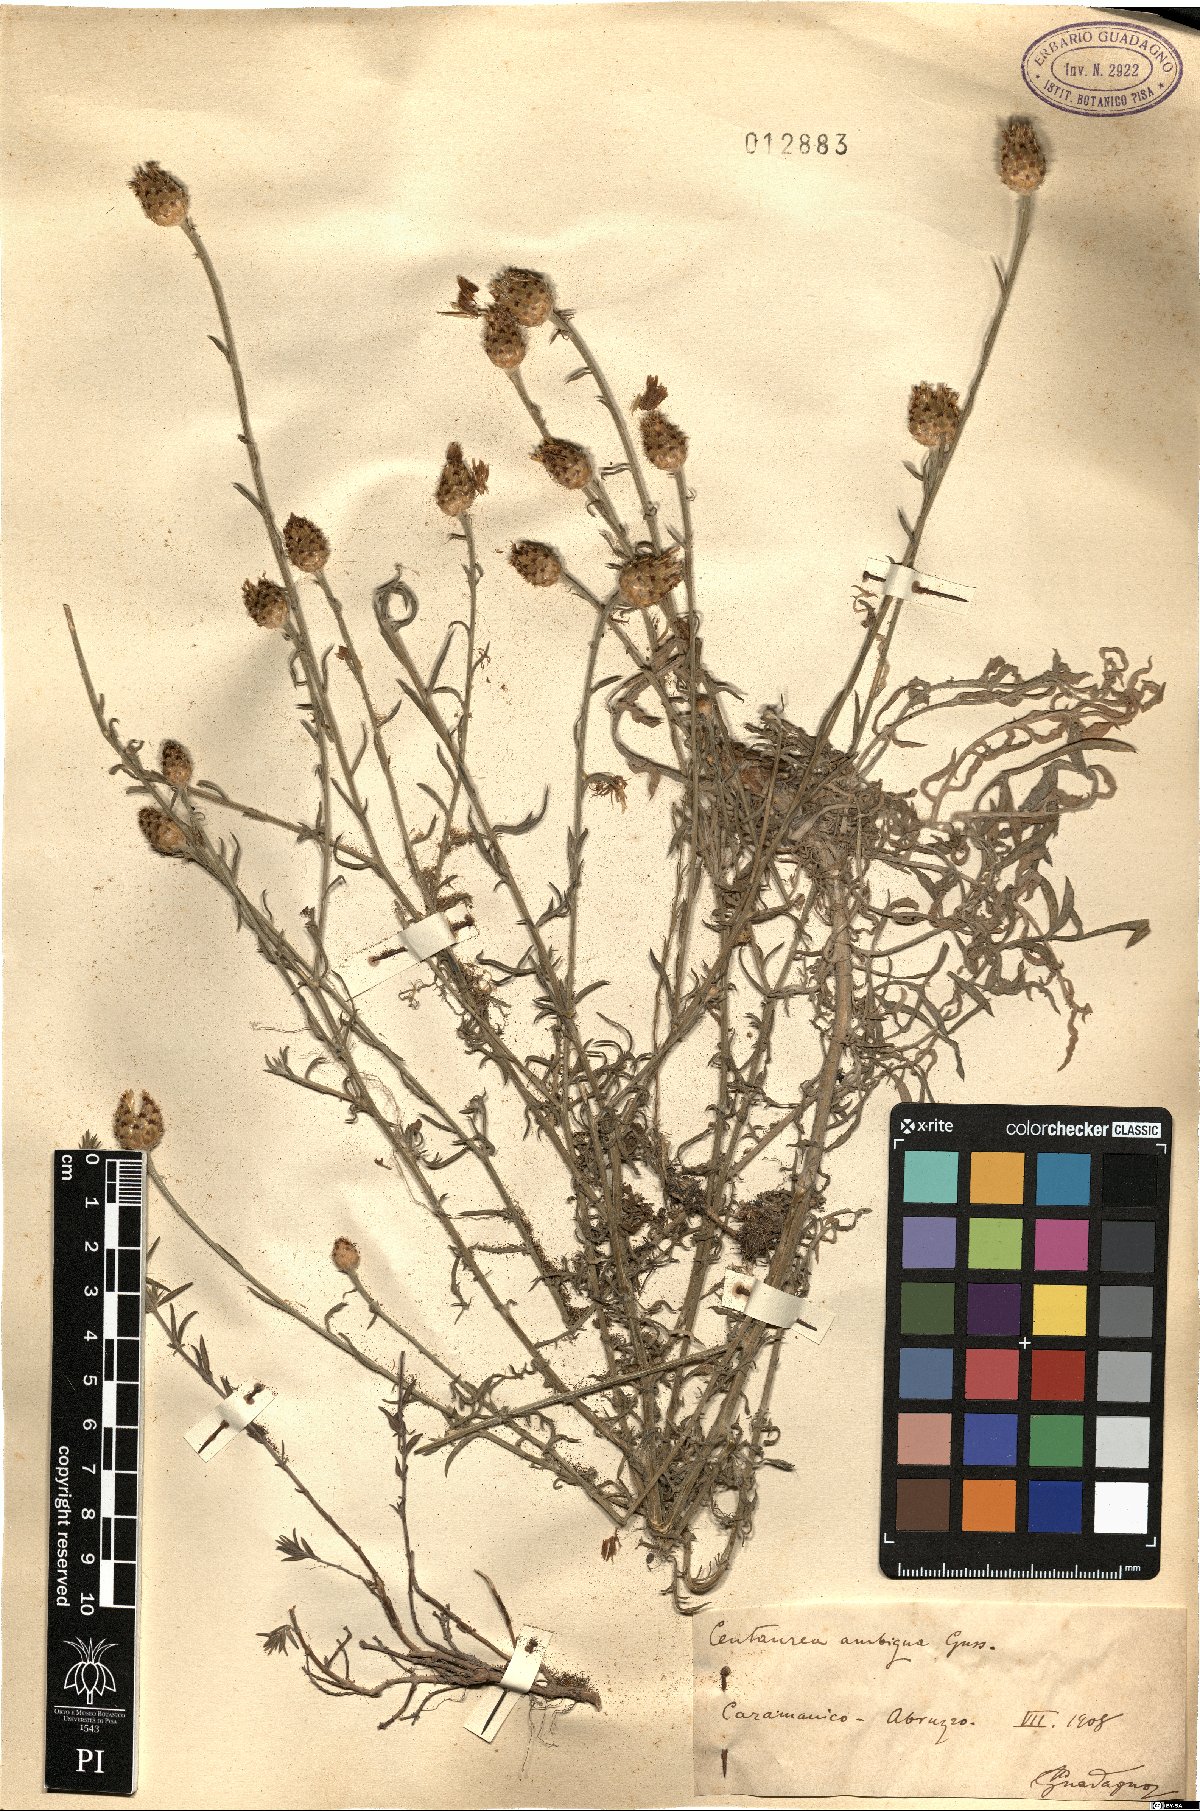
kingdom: Plantae
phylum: Tracheophyta
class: Magnoliopsida
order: Asterales
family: Asteraceae
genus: Centaurea
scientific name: Centaurea ambigua
